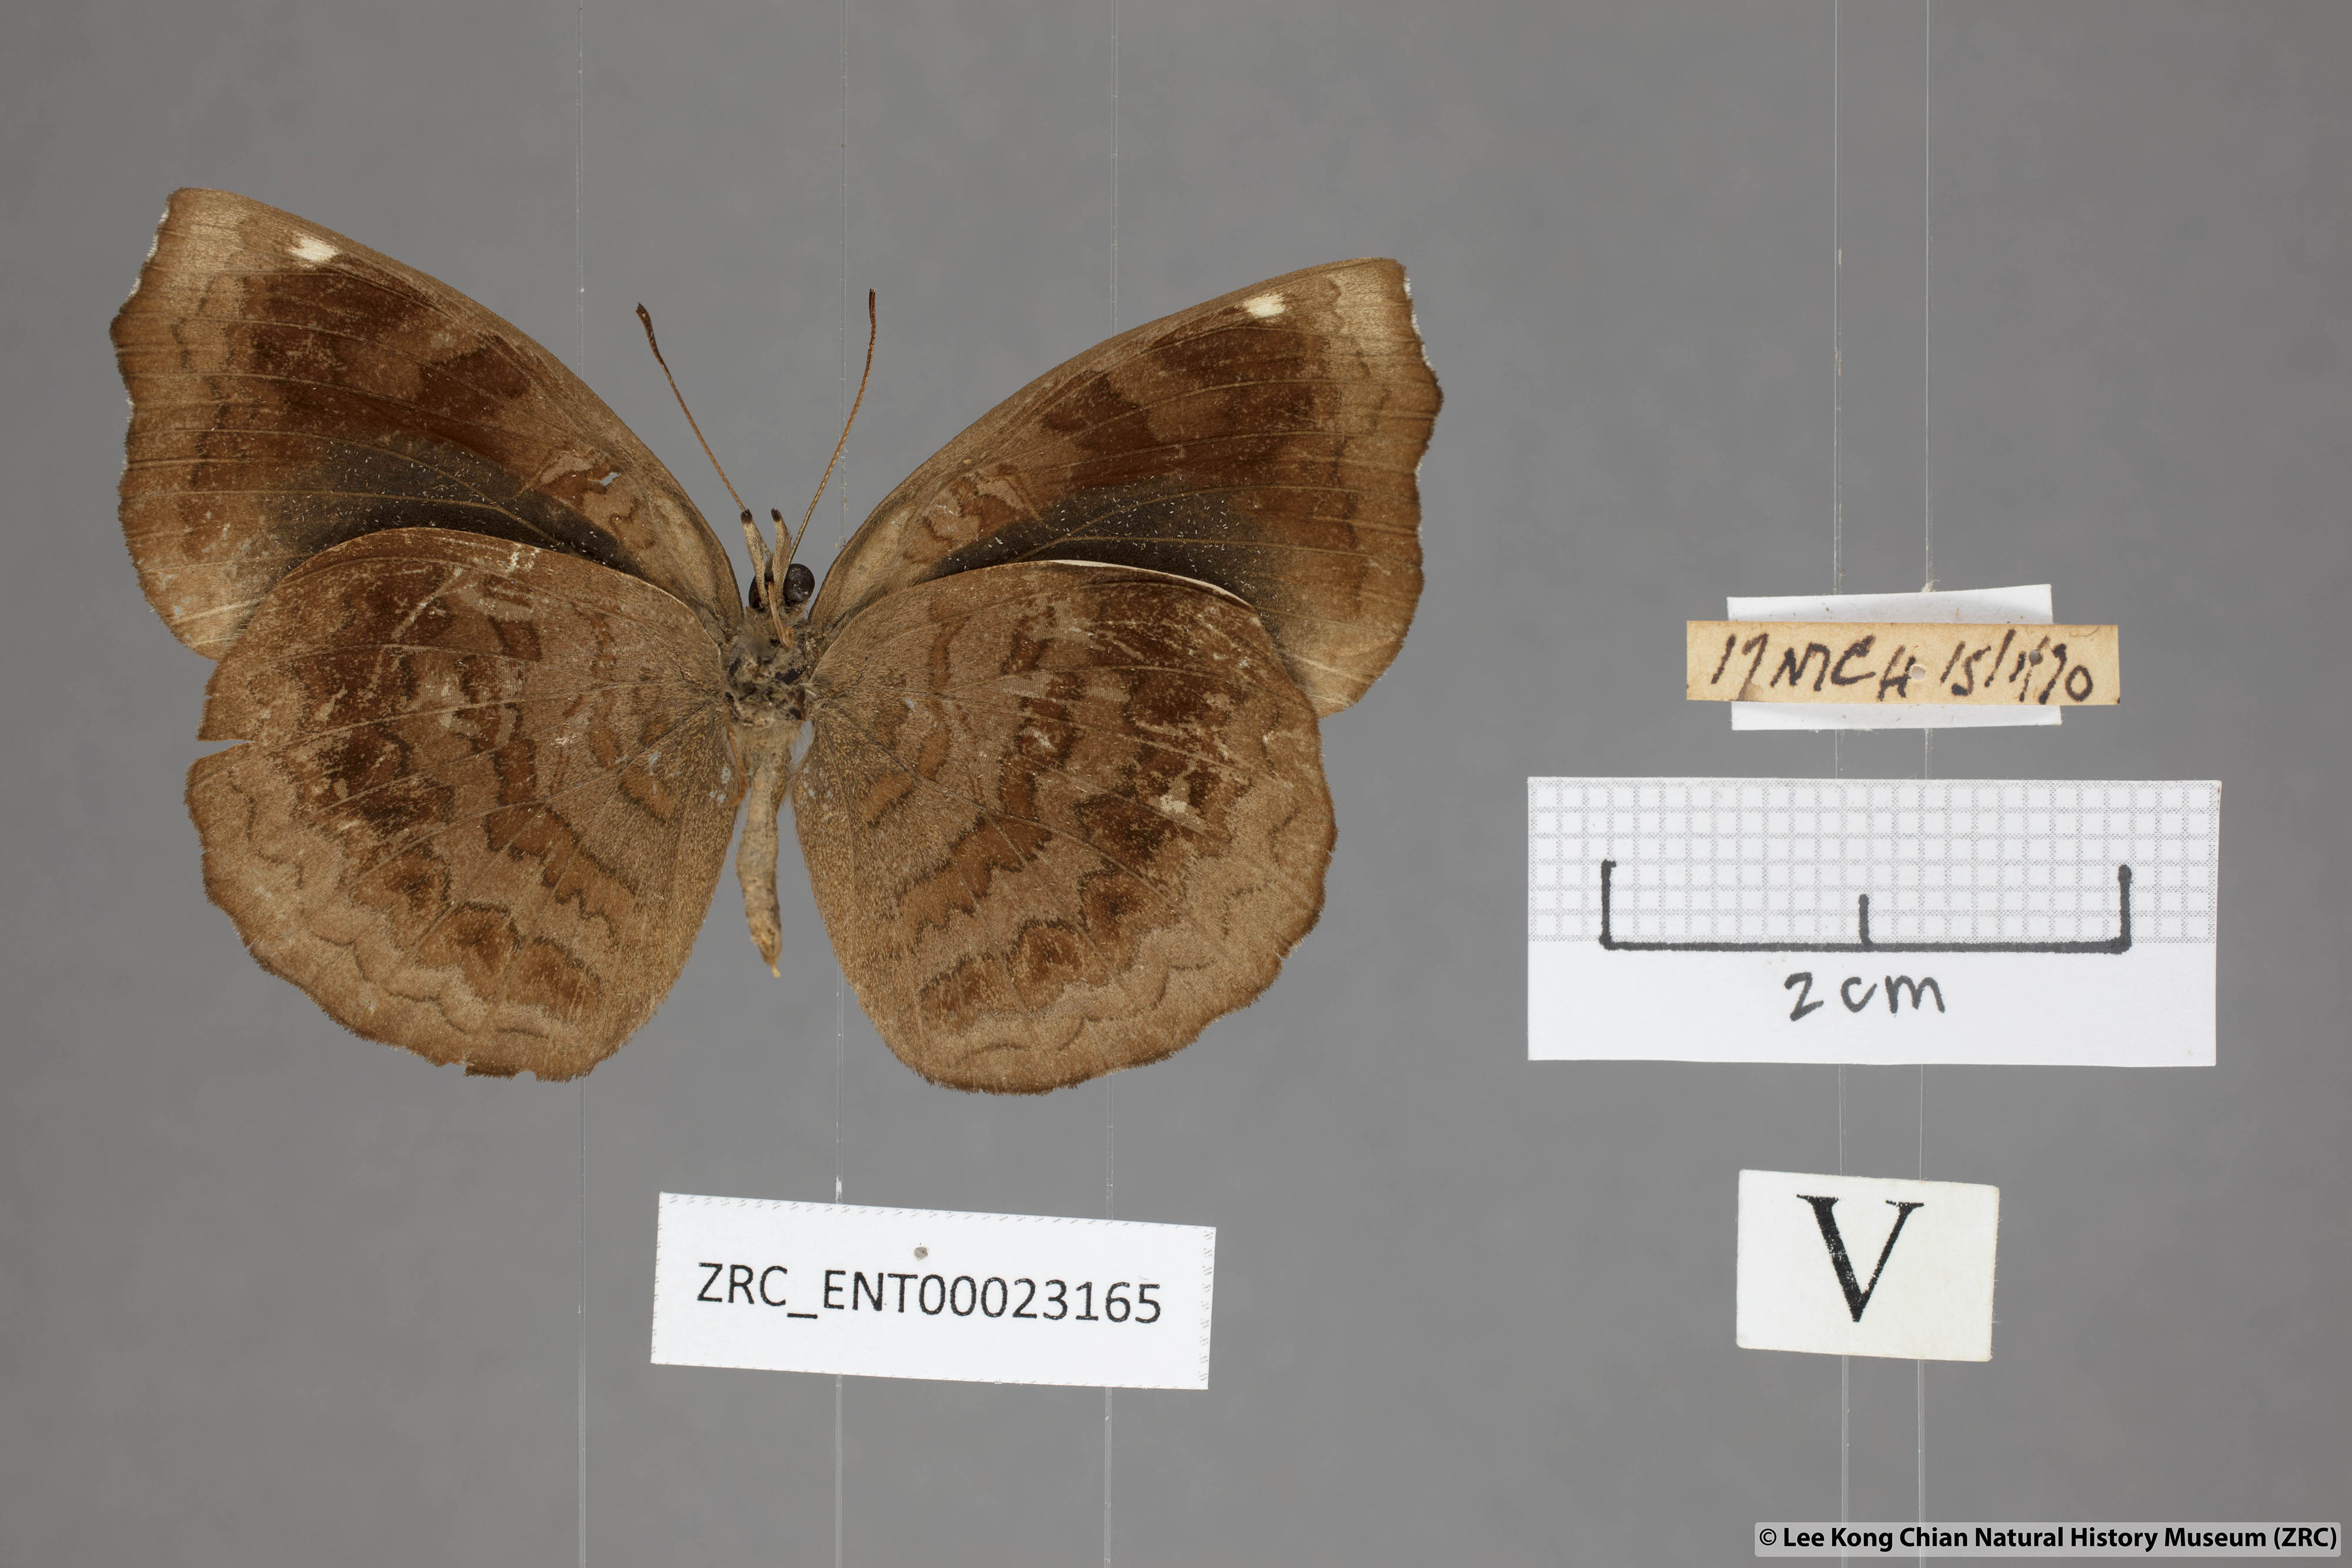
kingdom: Animalia
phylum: Arthropoda
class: Insecta
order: Lepidoptera
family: Nymphalidae
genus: Ariadne
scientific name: Ariadne merione
